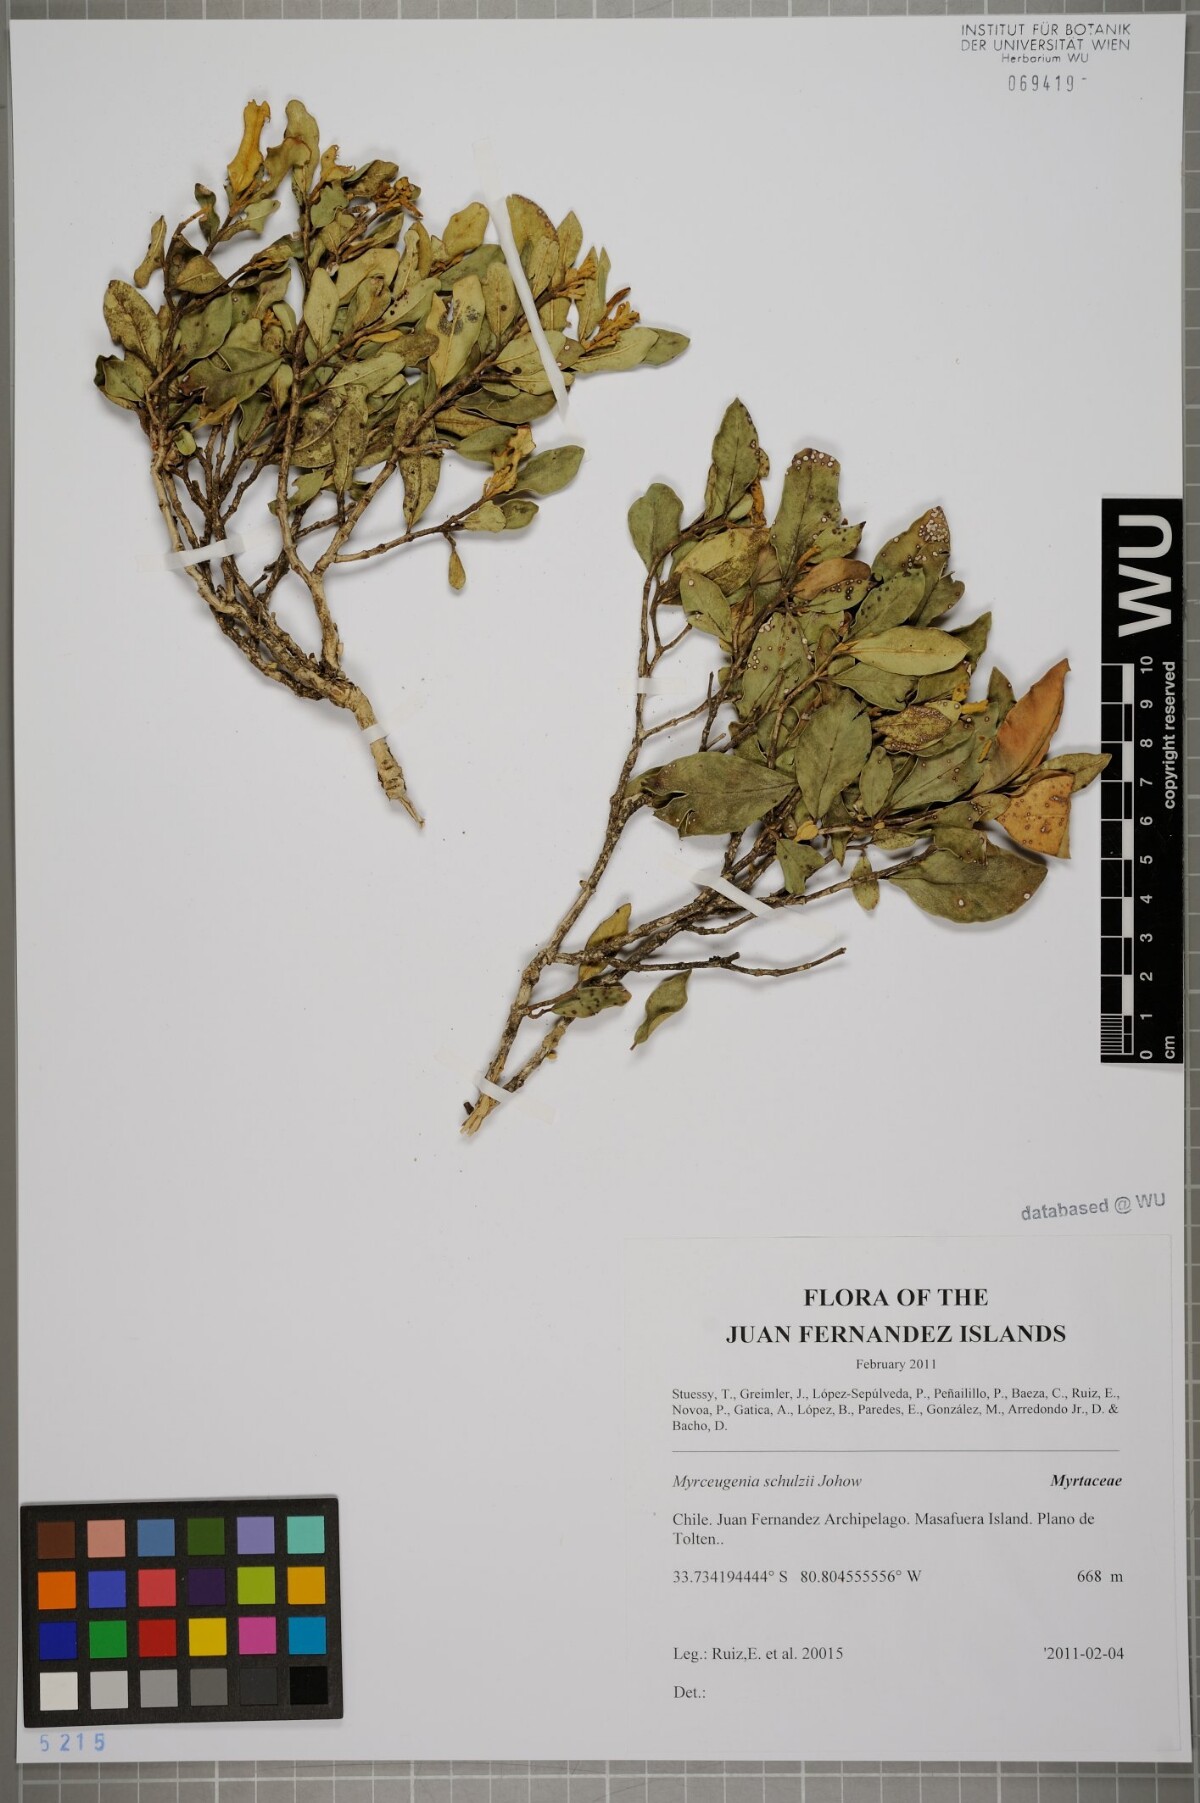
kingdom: Plantae
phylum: Tracheophyta
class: Magnoliopsida
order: Myrtales
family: Myrtaceae
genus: Myrceugenia
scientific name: Myrceugenia schulzei
